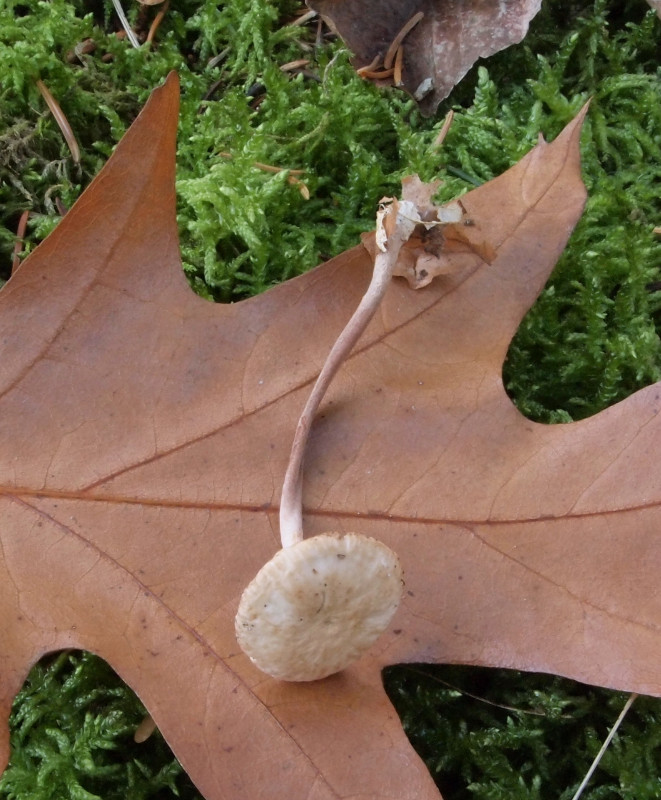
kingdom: Fungi
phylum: Basidiomycota
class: Agaricomycetes
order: Agaricales
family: Omphalotaceae
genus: Mycetinis
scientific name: Mycetinis querceus
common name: ege-løghat
